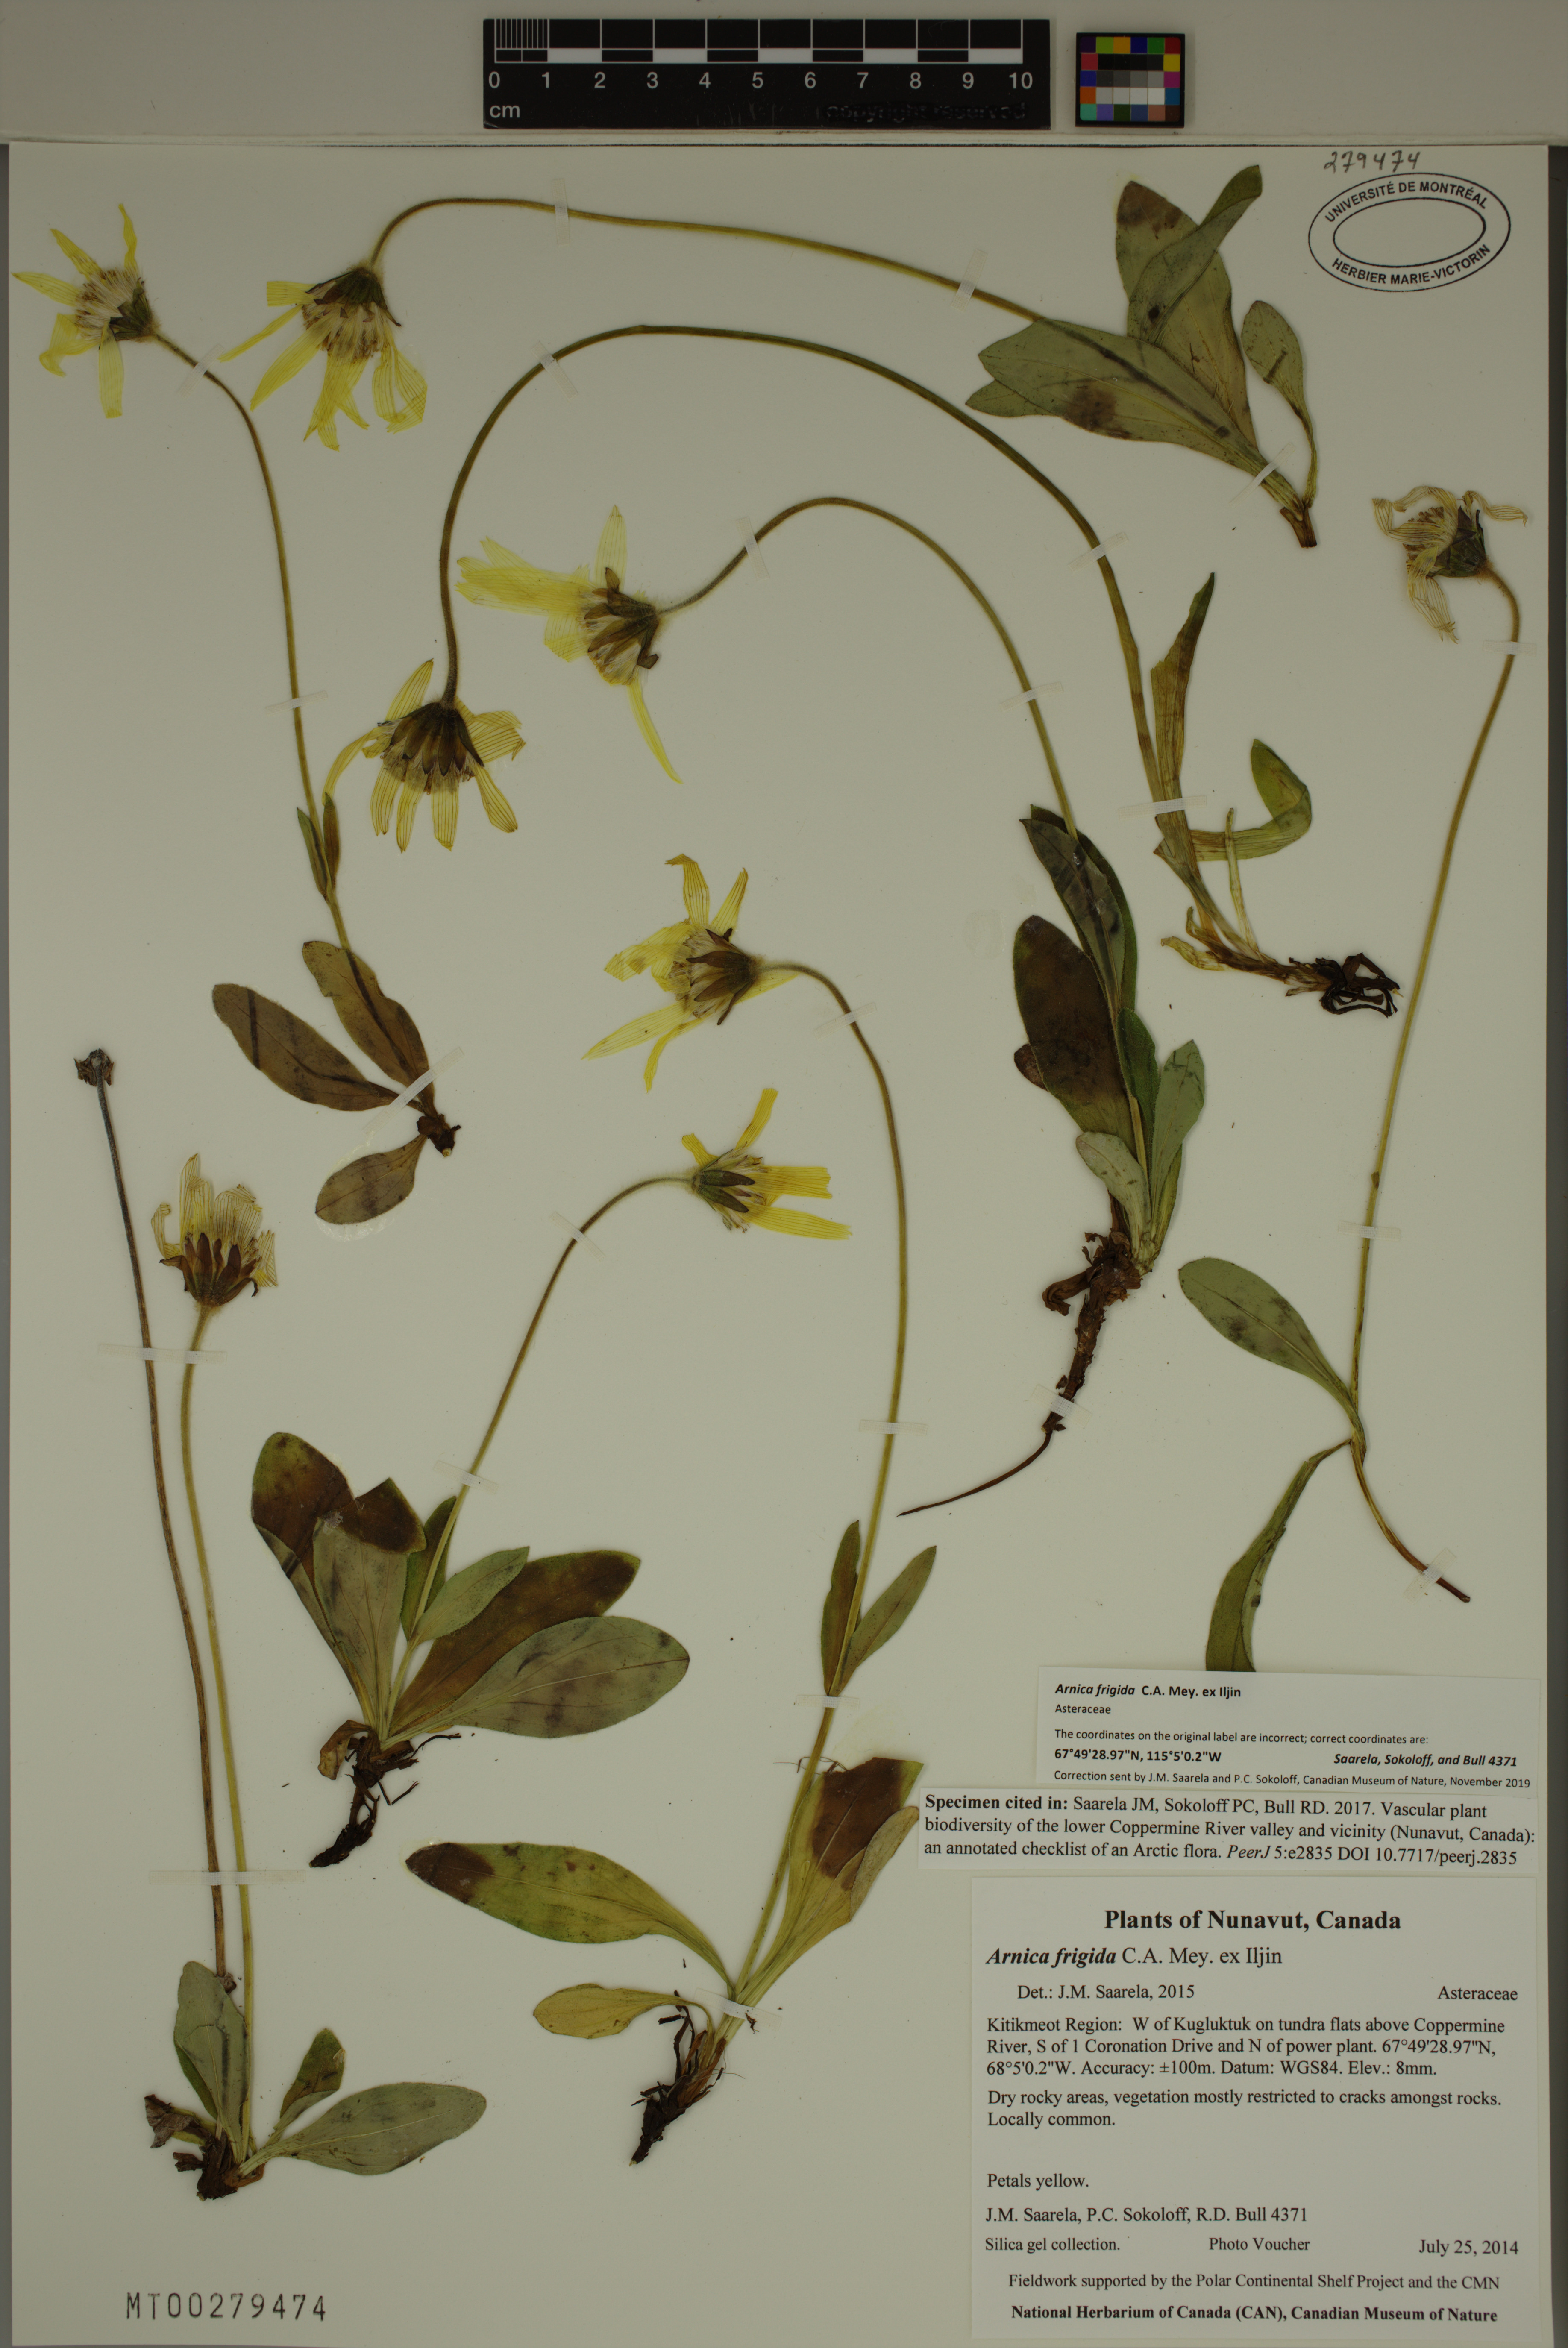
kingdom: Plantae
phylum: Tracheophyta
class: Magnoliopsida
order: Asterales
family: Asteraceae
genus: Arnica
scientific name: Arnica griscomii
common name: Snow arnica
